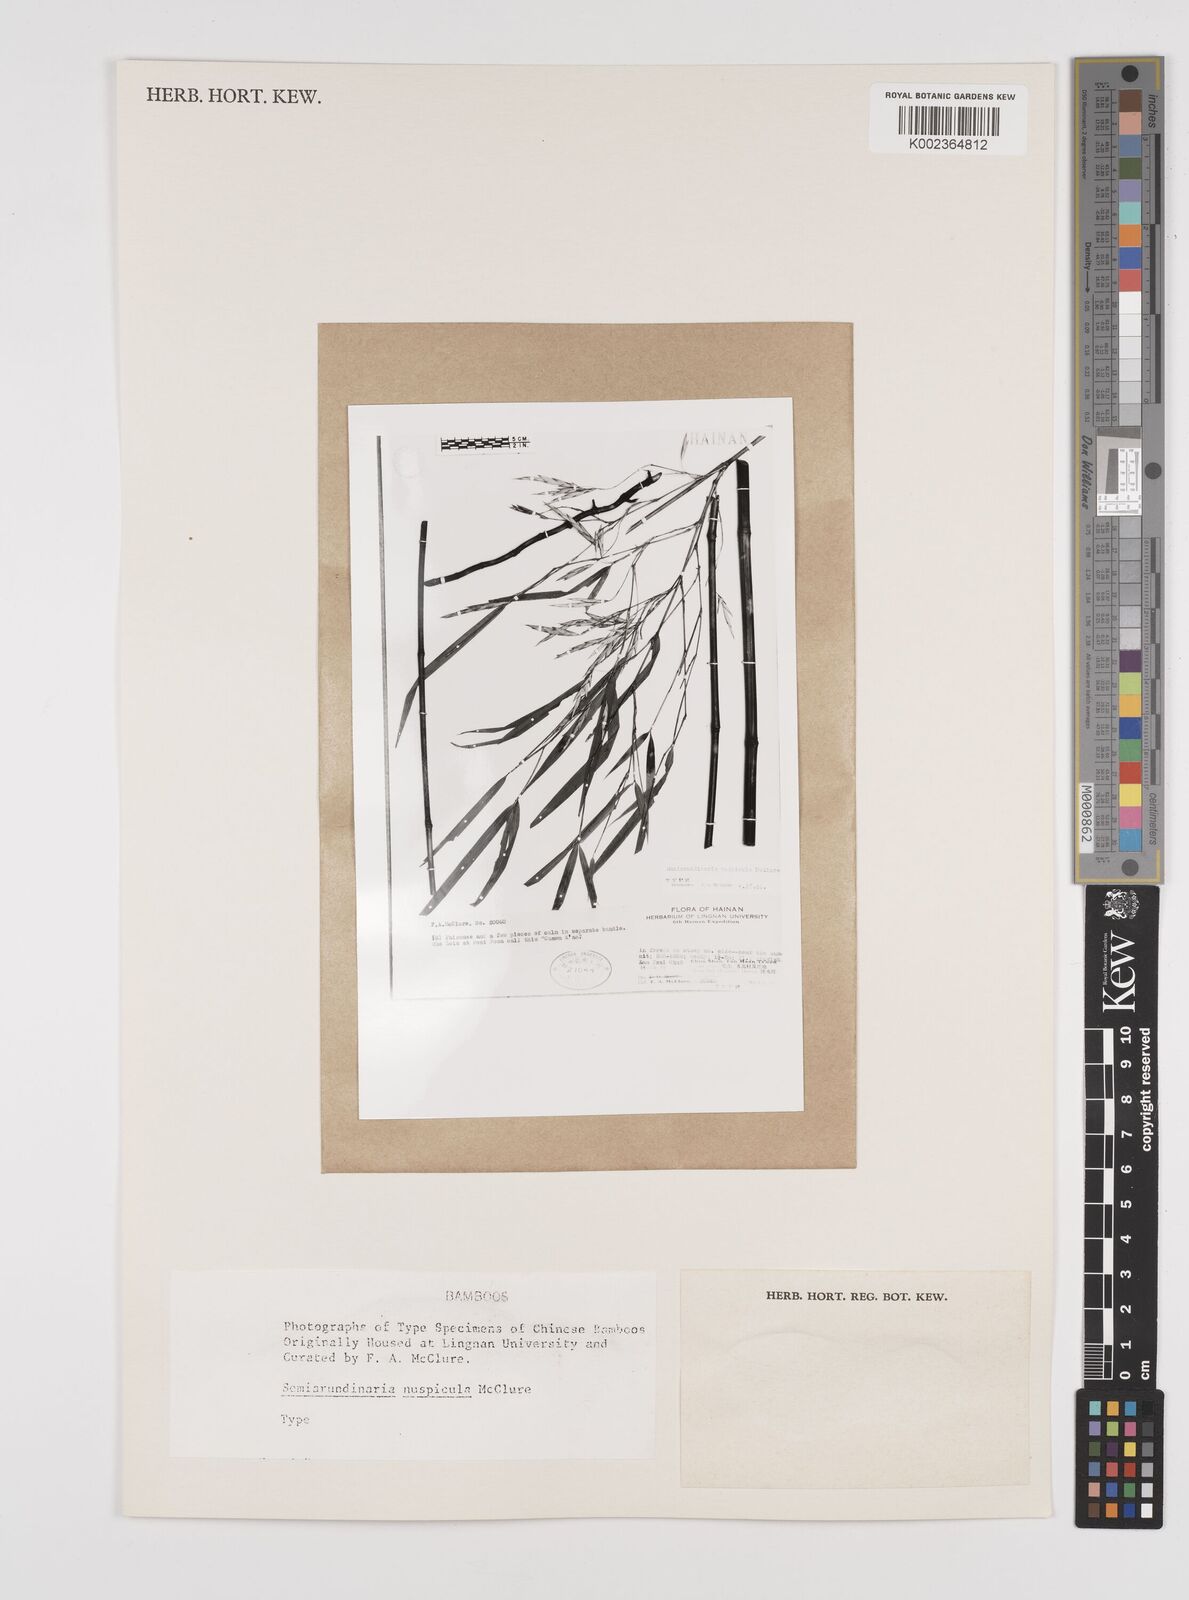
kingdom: Plantae
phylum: Tracheophyta
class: Liliopsida
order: Poales
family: Poaceae
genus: Semiarundinaria
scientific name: Semiarundinaria fastuosa
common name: Narihira bamboo
